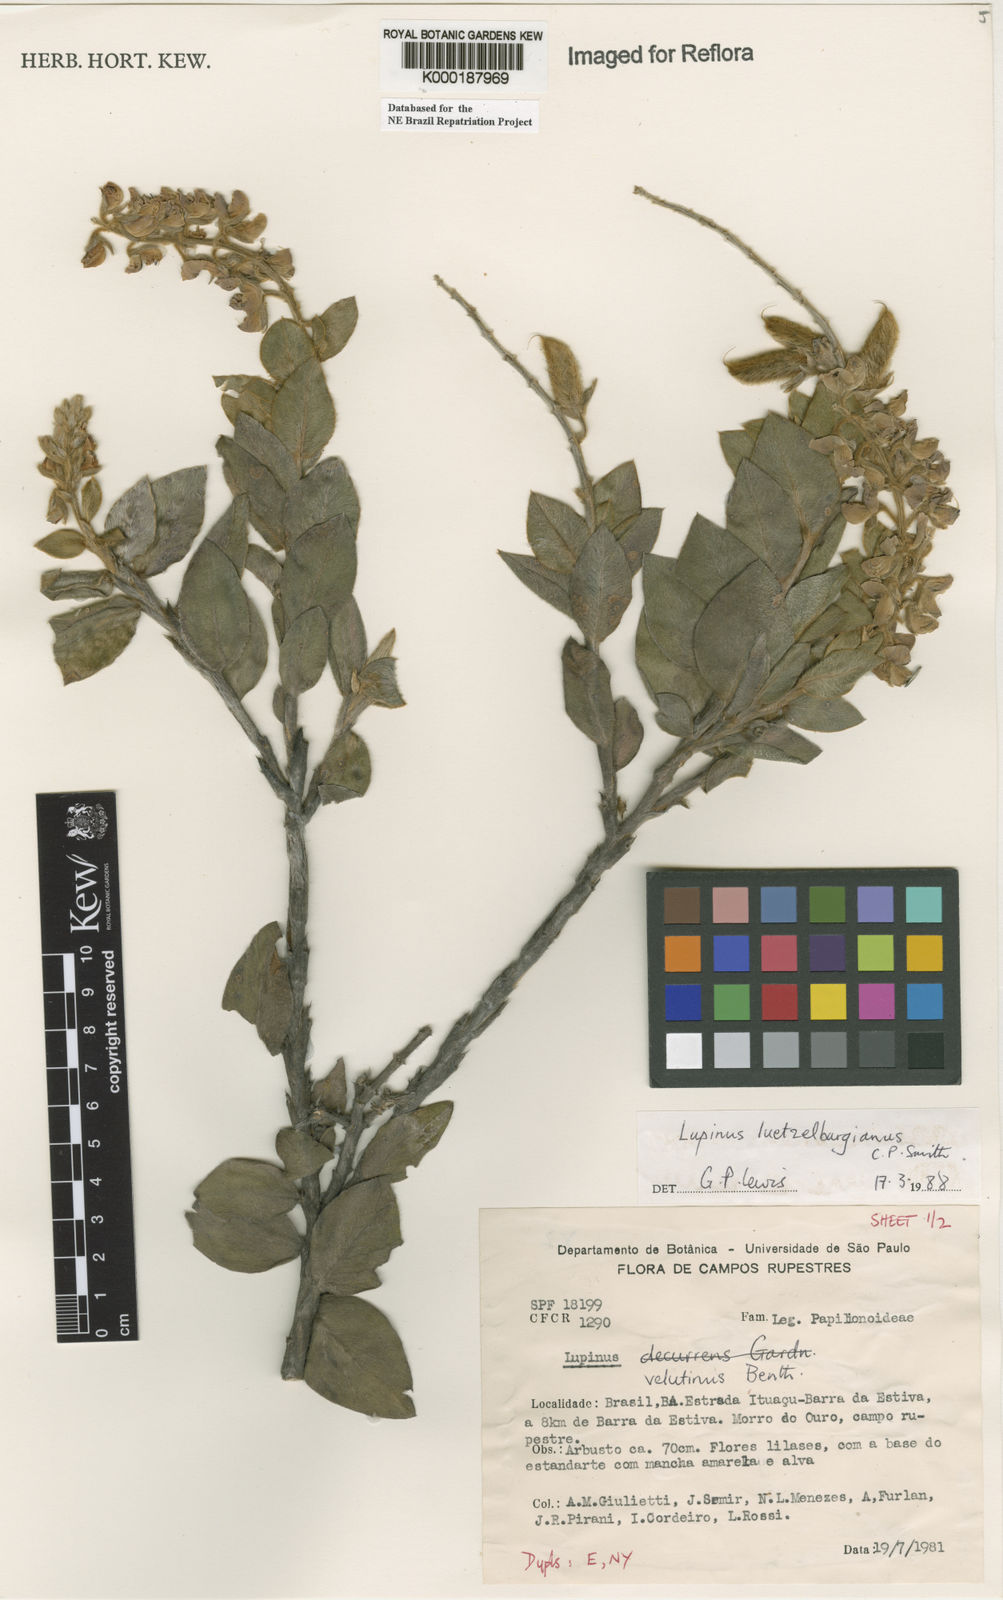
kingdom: Plantae
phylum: Tracheophyta
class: Magnoliopsida
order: Fabales
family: Fabaceae
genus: Lupinus
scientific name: Lupinus
